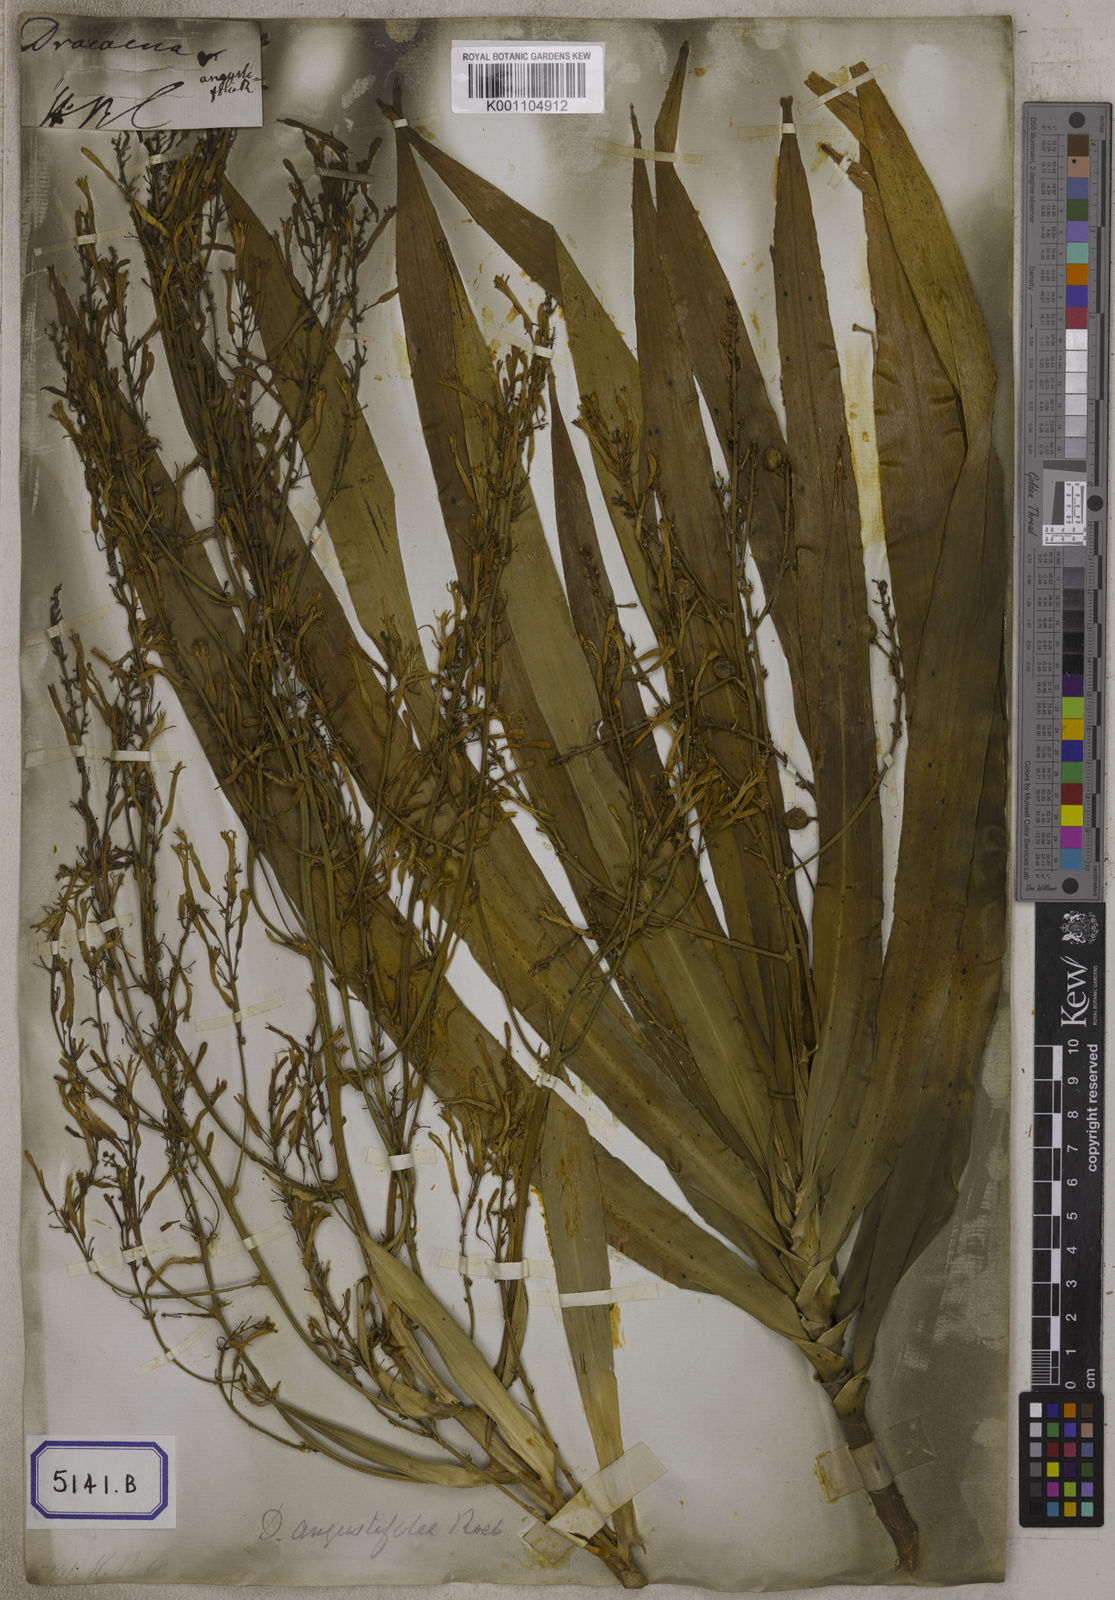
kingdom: Plantae
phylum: Tracheophyta
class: Liliopsida
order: Asparagales
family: Asparagaceae
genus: Dracaena
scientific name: Dracaena angustifolia
